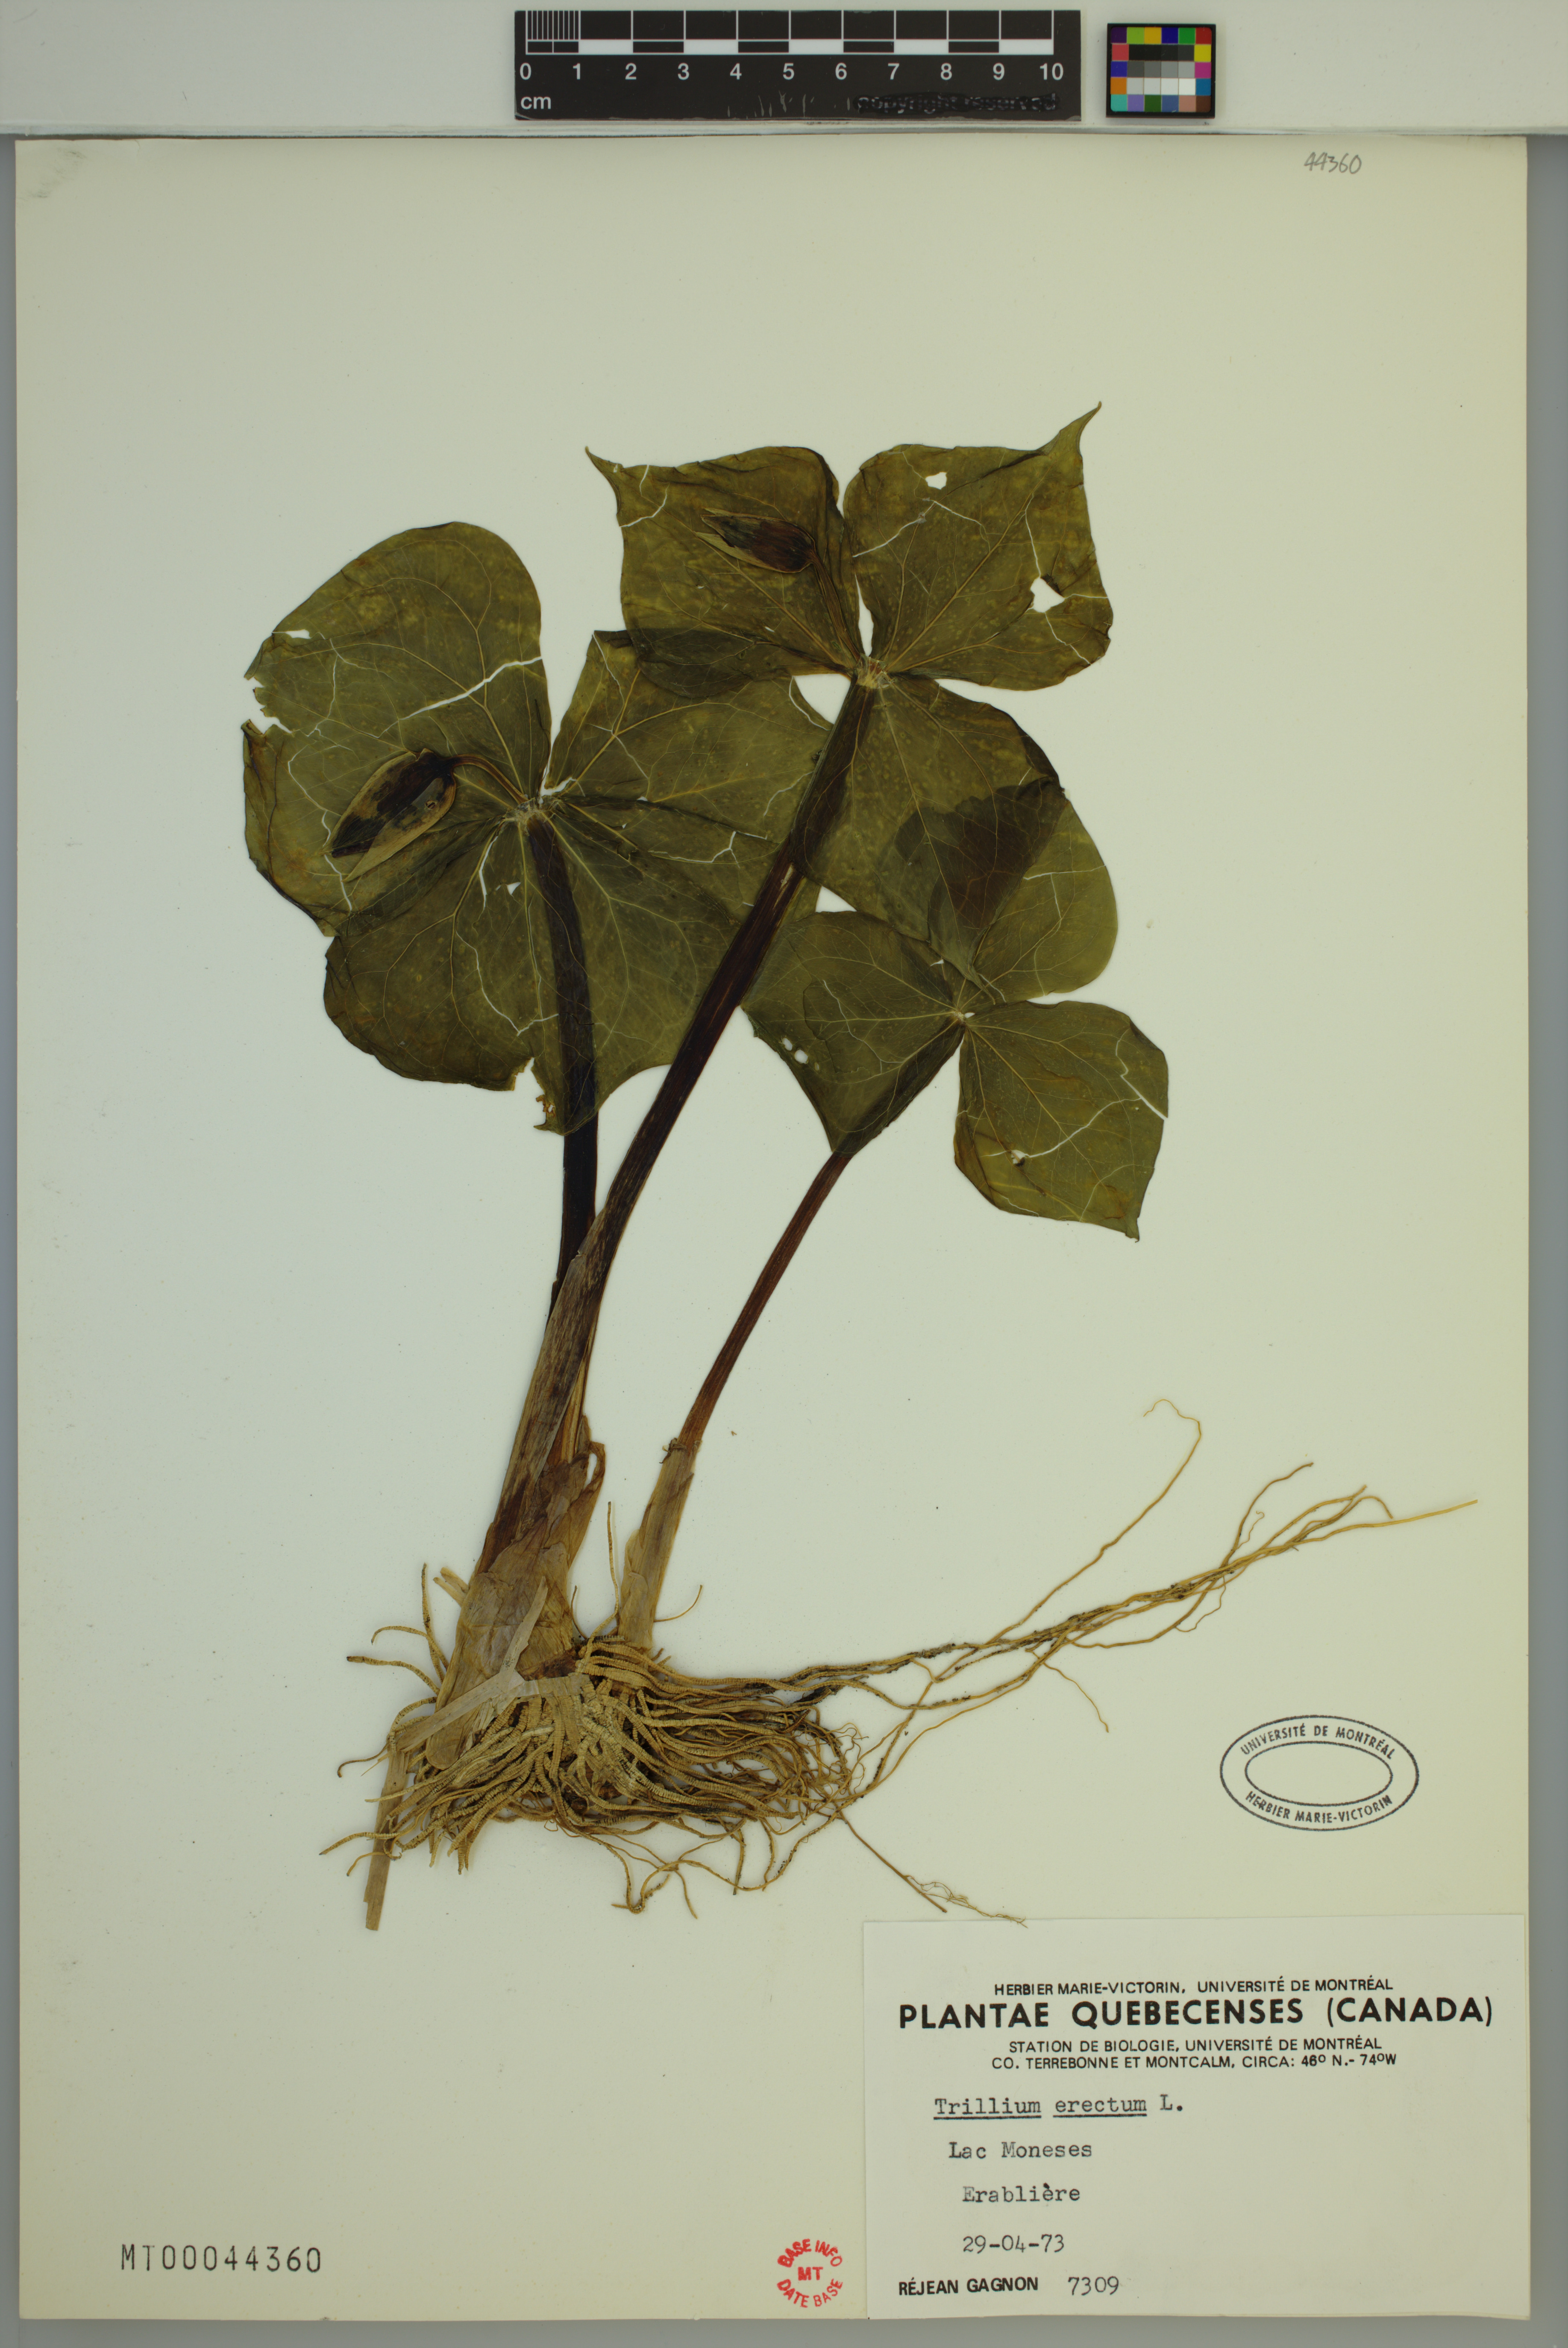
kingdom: Plantae
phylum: Tracheophyta
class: Liliopsida
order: Liliales
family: Melanthiaceae
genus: Trillium
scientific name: Trillium erectum
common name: Purple trillium
